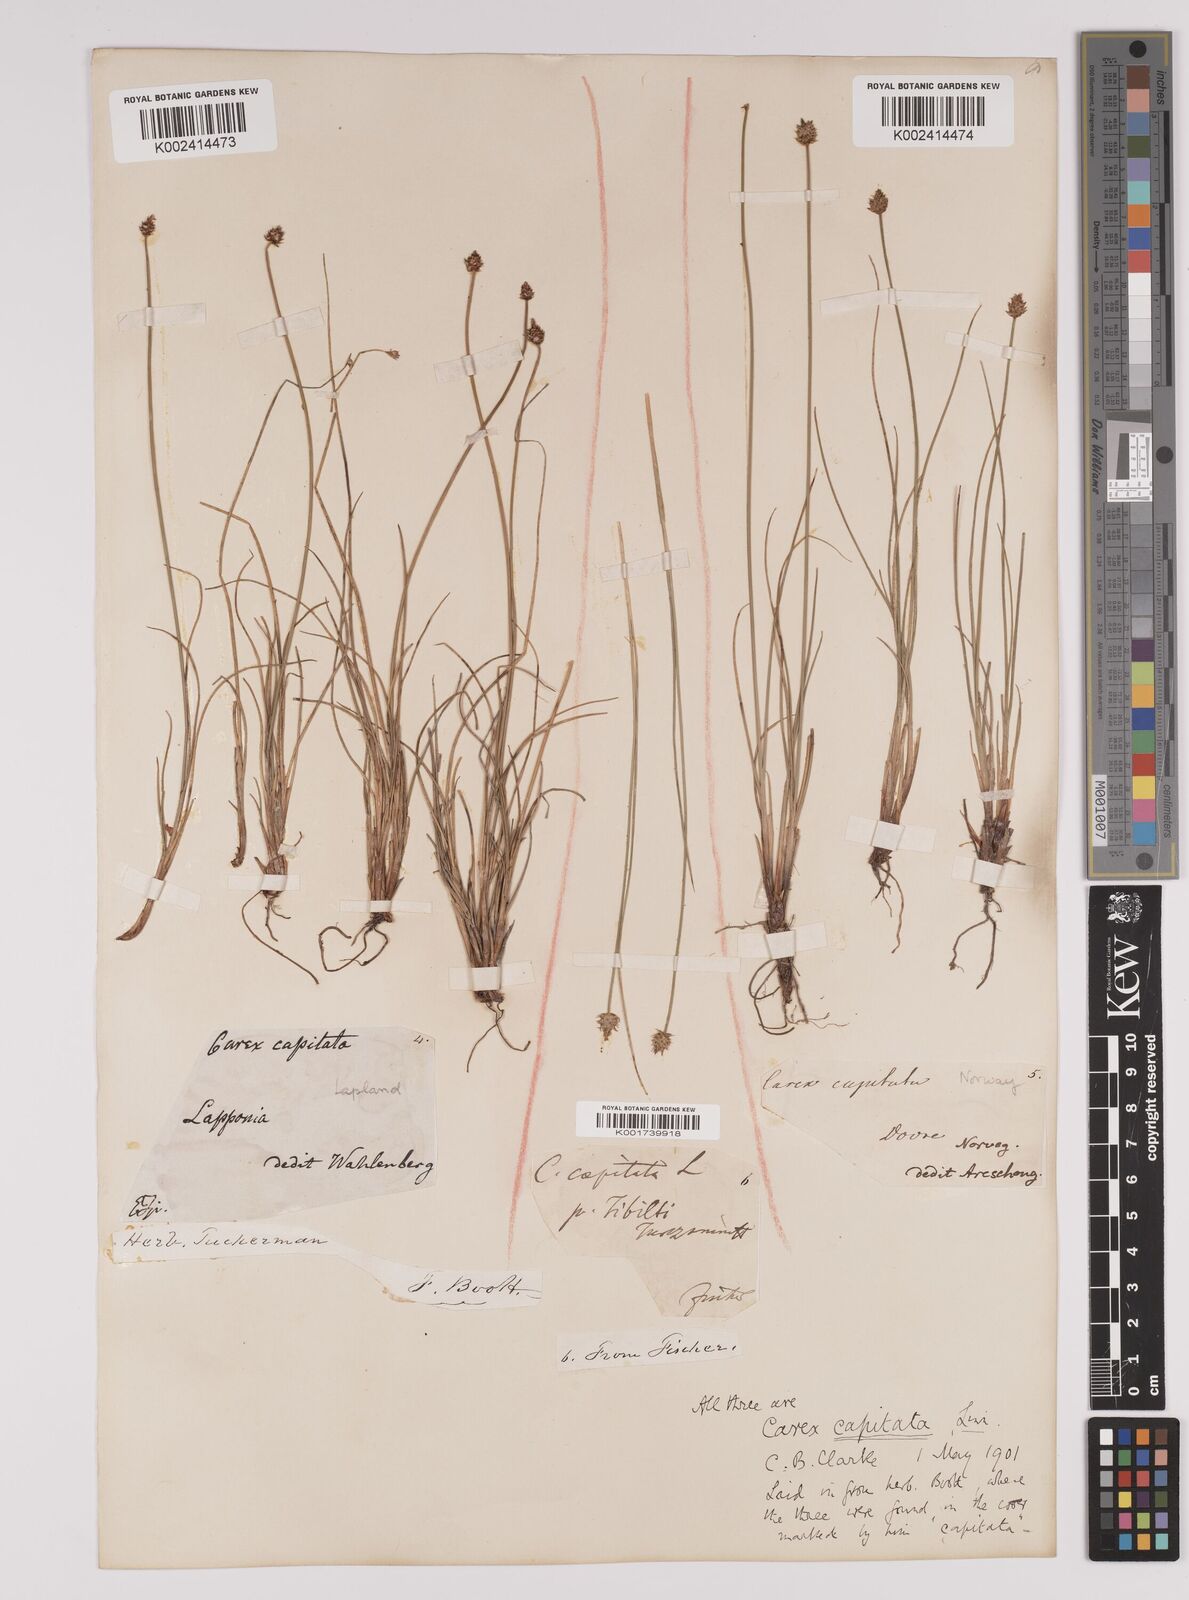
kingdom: Plantae
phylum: Tracheophyta
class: Liliopsida
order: Poales
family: Cyperaceae
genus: Carex
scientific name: Carex capitata
